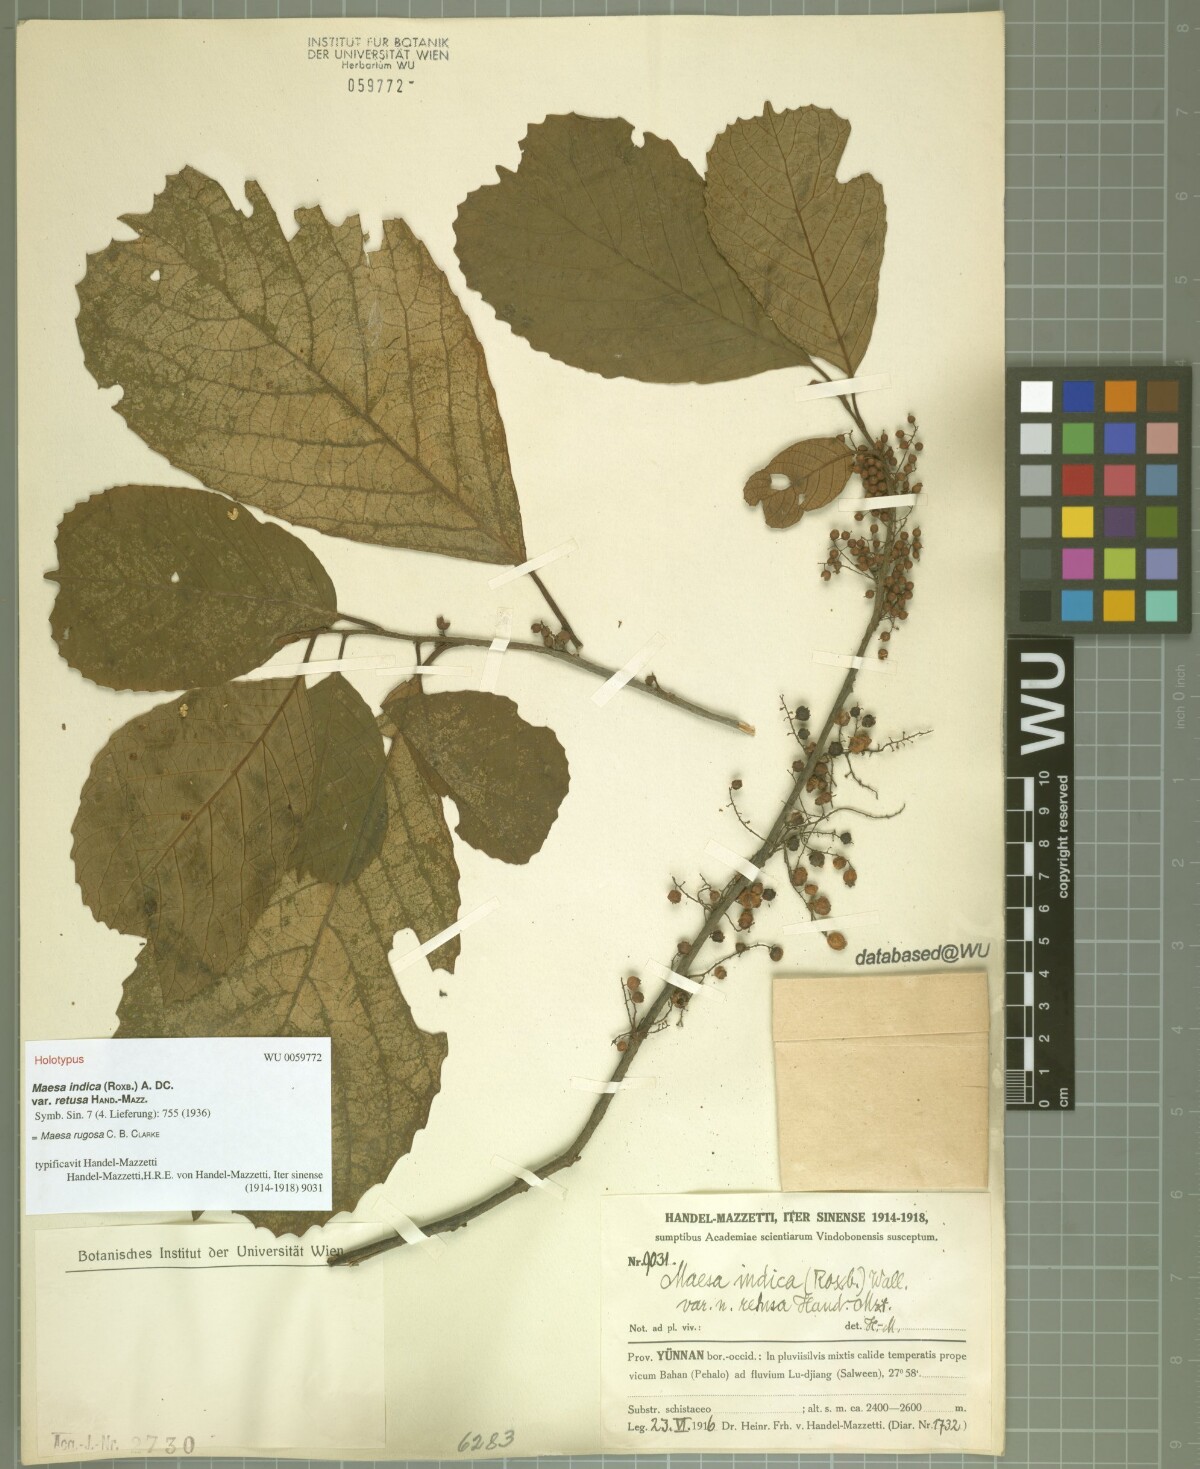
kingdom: Plantae
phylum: Tracheophyta
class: Magnoliopsida
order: Ericales
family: Primulaceae
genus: Maesa
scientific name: Maesa rugosa
